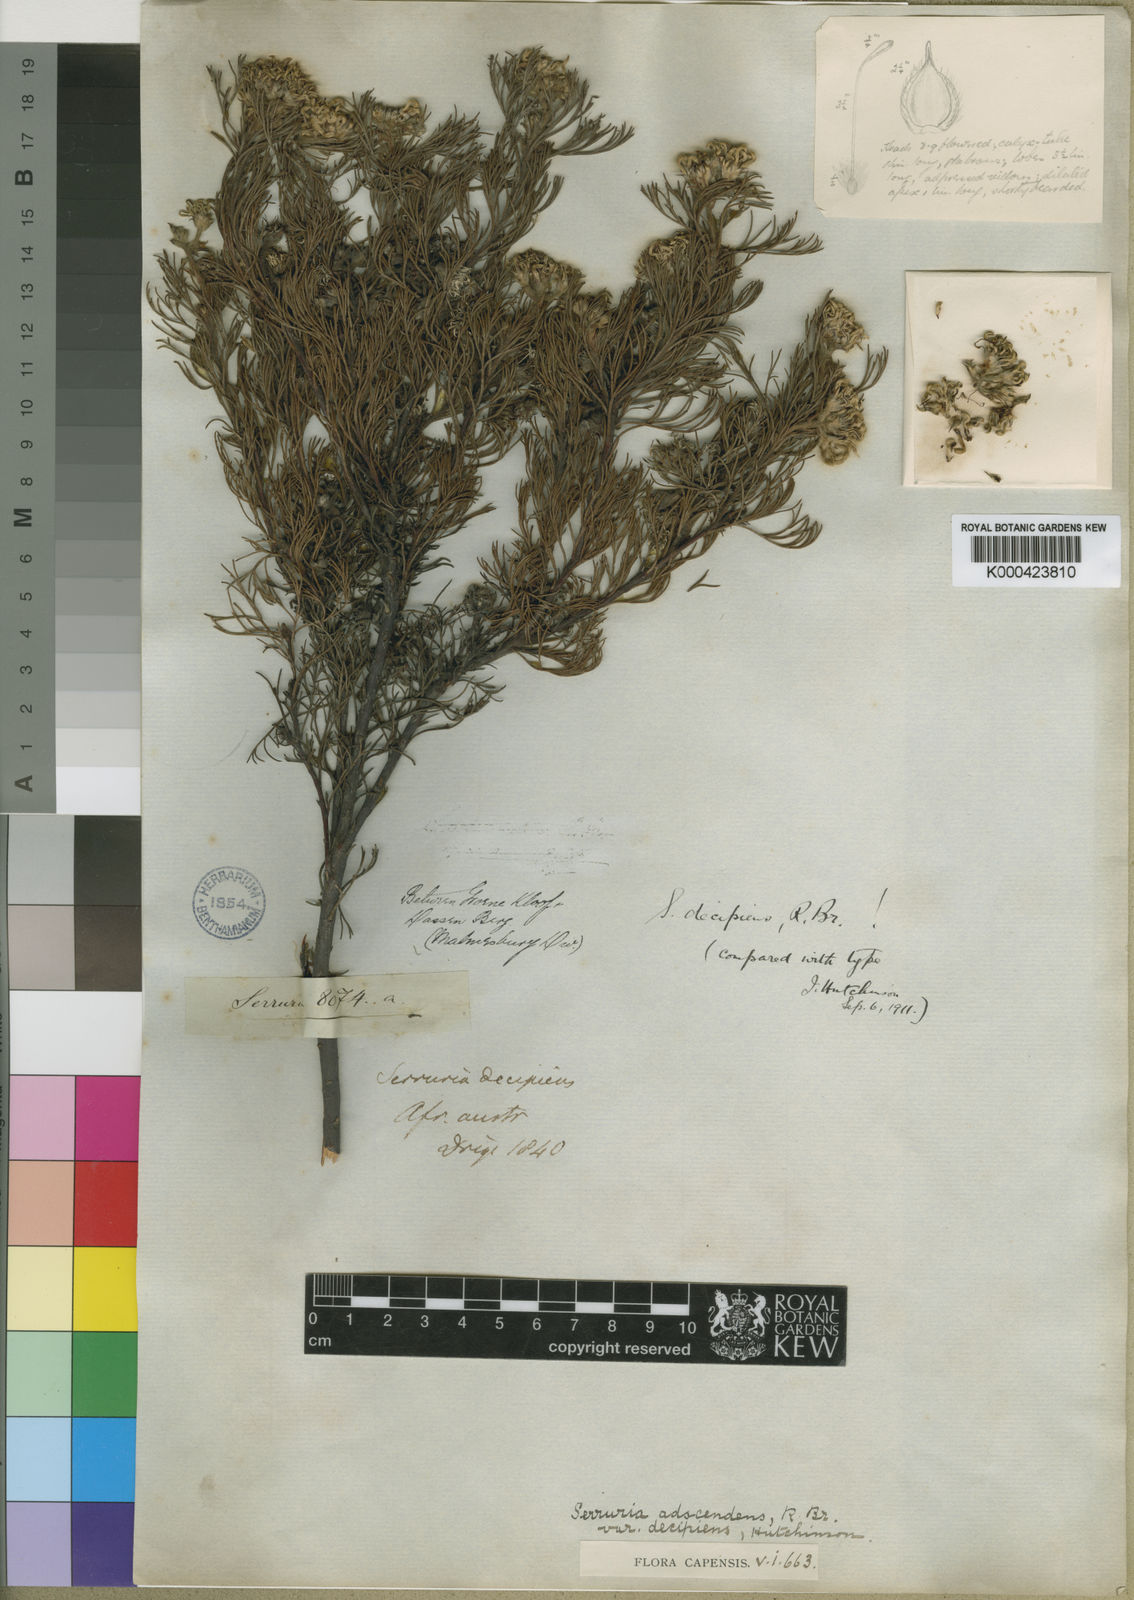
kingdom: Plantae
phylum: Tracheophyta
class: Magnoliopsida
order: Proteales
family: Proteaceae
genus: Serruria
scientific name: Serruria
